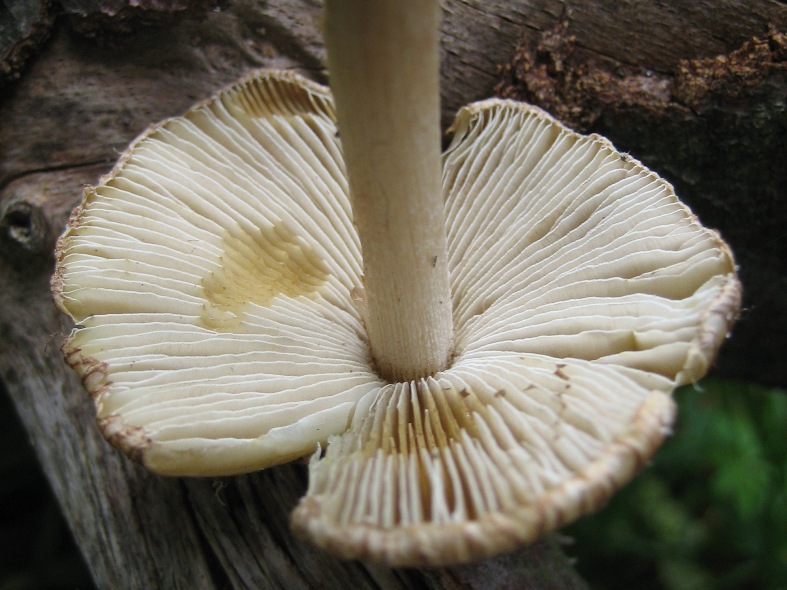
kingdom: Fungi
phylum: Basidiomycota
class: Agaricomycetes
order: Agaricales
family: Inocybaceae
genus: Pseudosperma
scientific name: Pseudosperma perlatum
